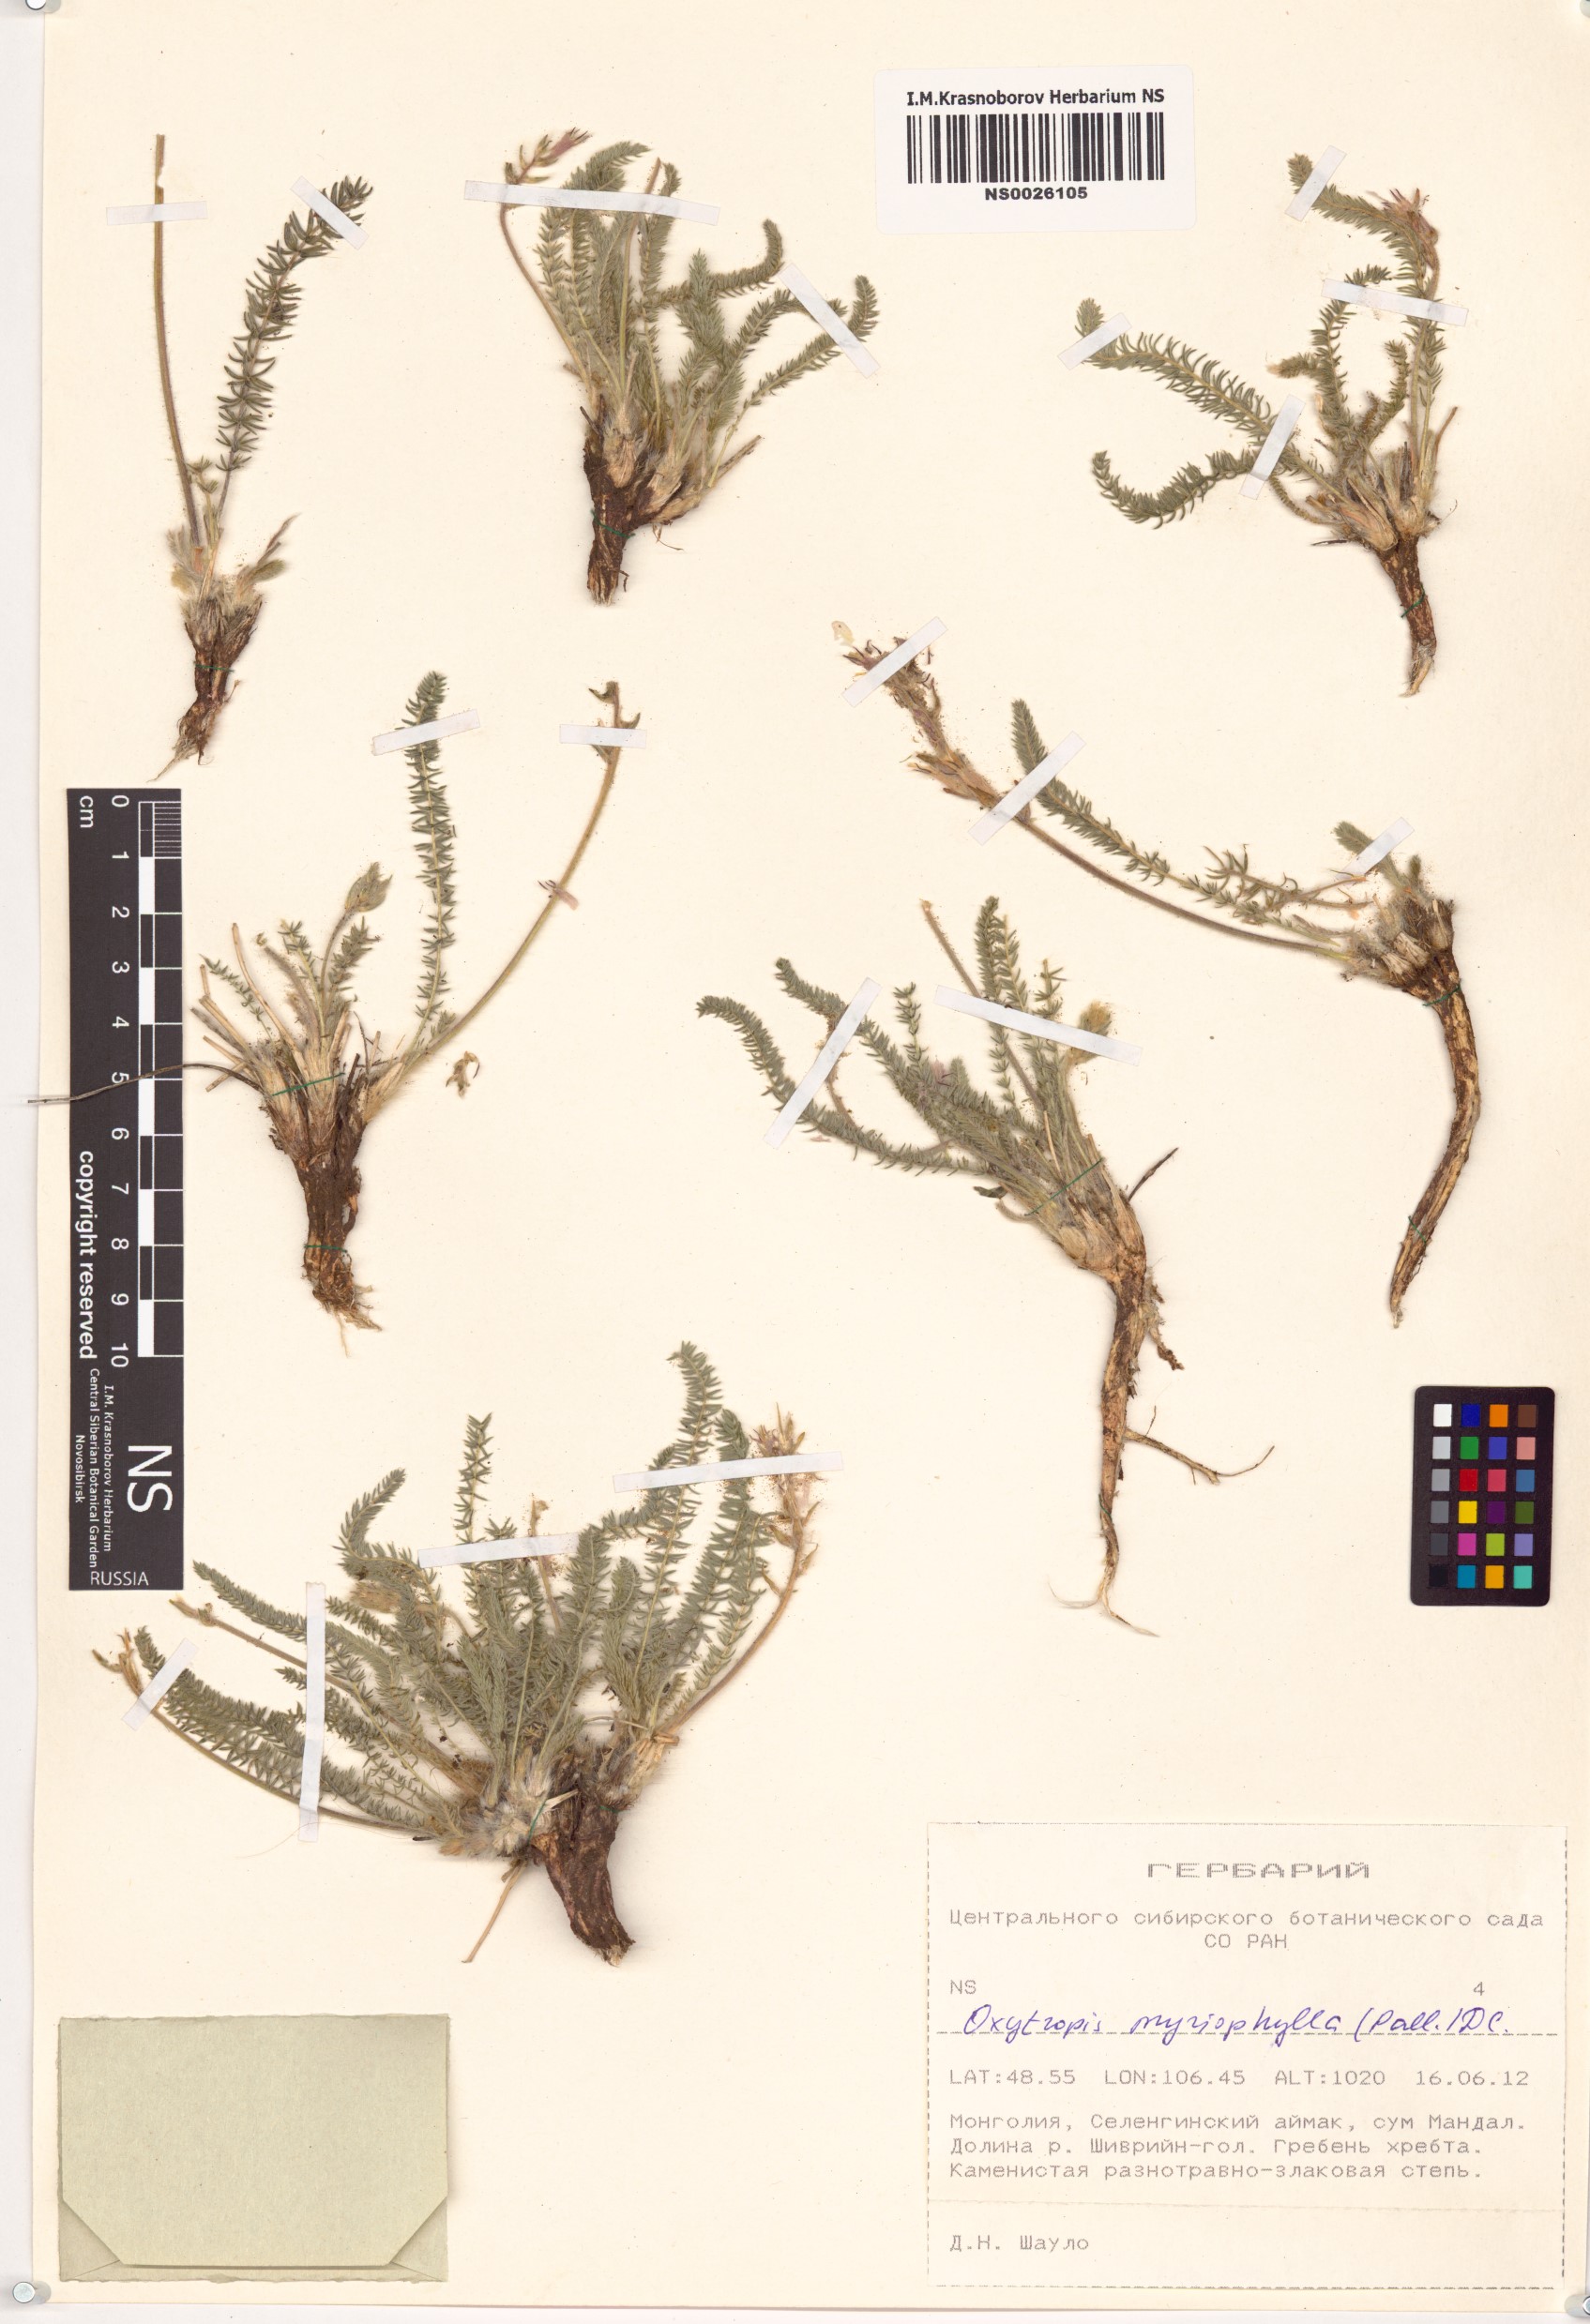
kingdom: Plantae
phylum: Tracheophyta
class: Magnoliopsida
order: Fabales
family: Fabaceae
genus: Oxytropis
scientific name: Oxytropis myriophylla
